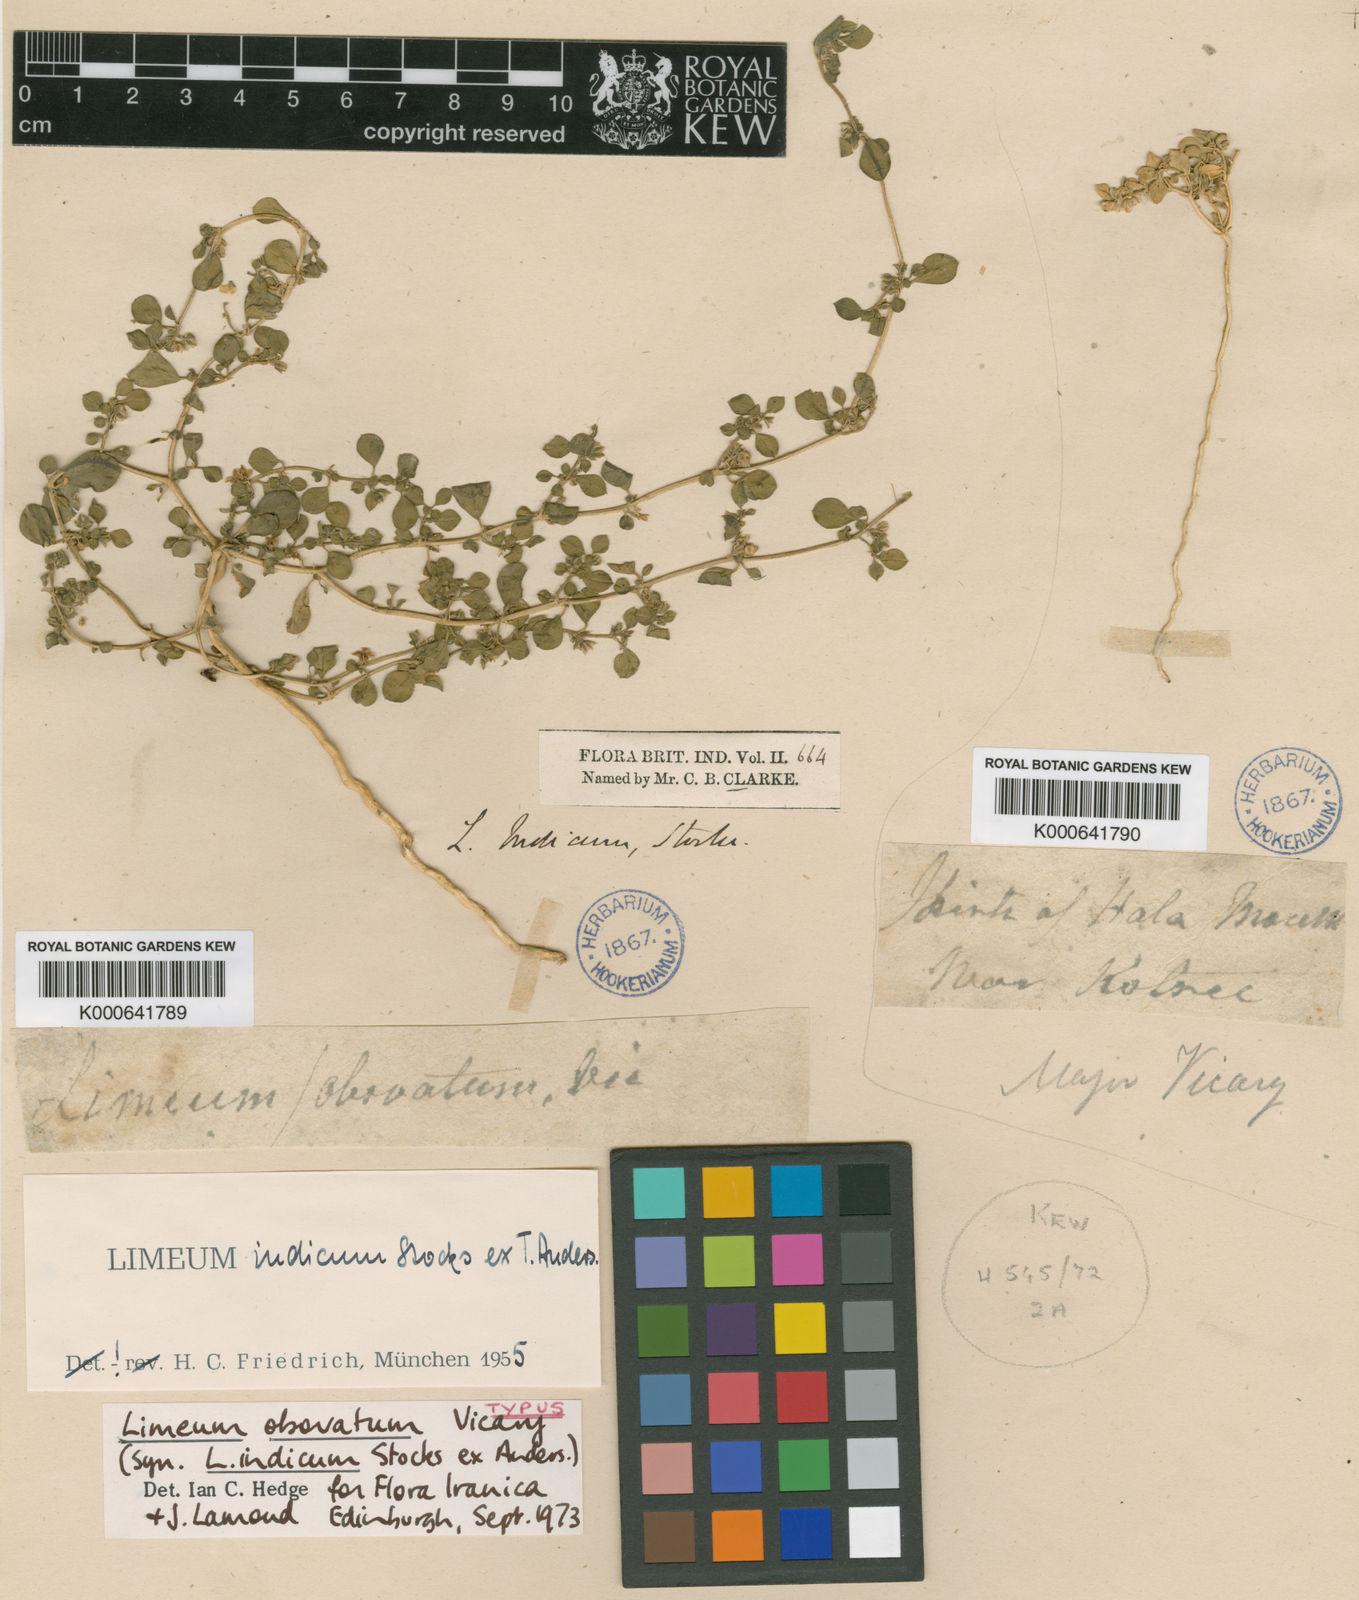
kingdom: Plantae
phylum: Tracheophyta
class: Magnoliopsida
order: Caryophyllales
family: Limeaceae
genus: Limeum
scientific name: Limeum obovatum
